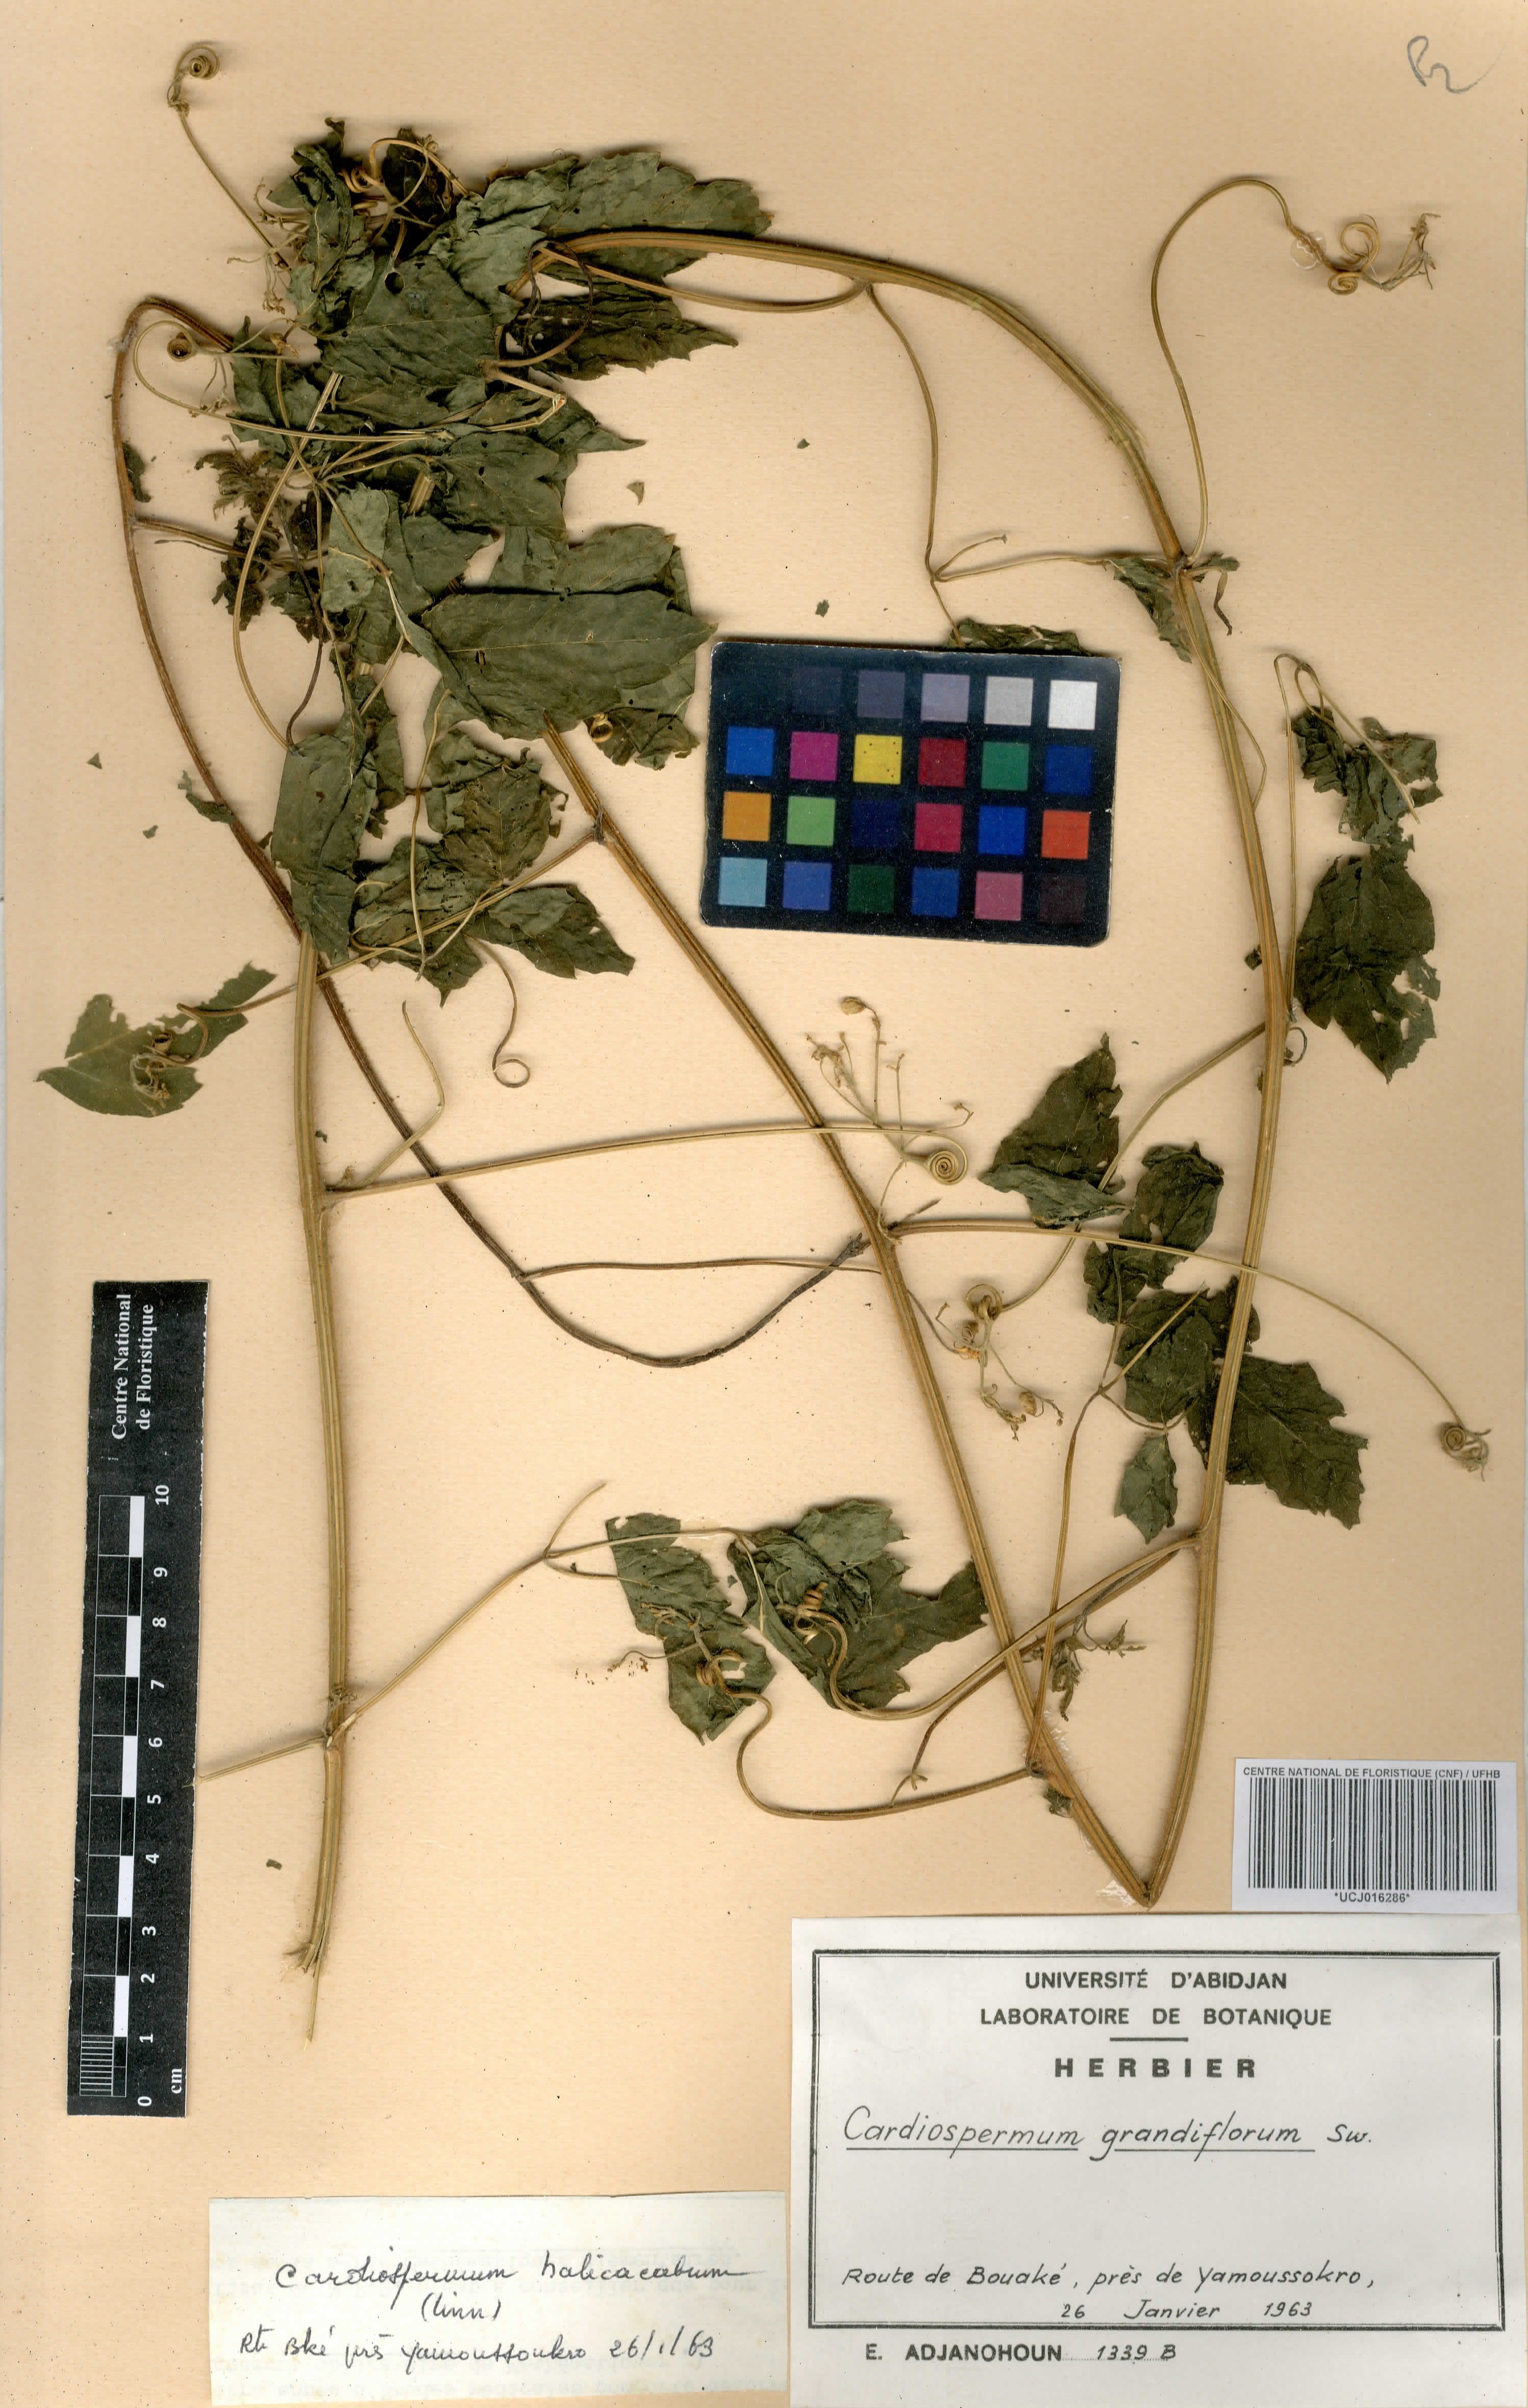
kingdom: Plantae
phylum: Tracheophyta
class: Magnoliopsida
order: Sapindales
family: Sapindaceae
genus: Cardiospermum
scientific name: Cardiospermum grandiflorum
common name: Balloon vine
